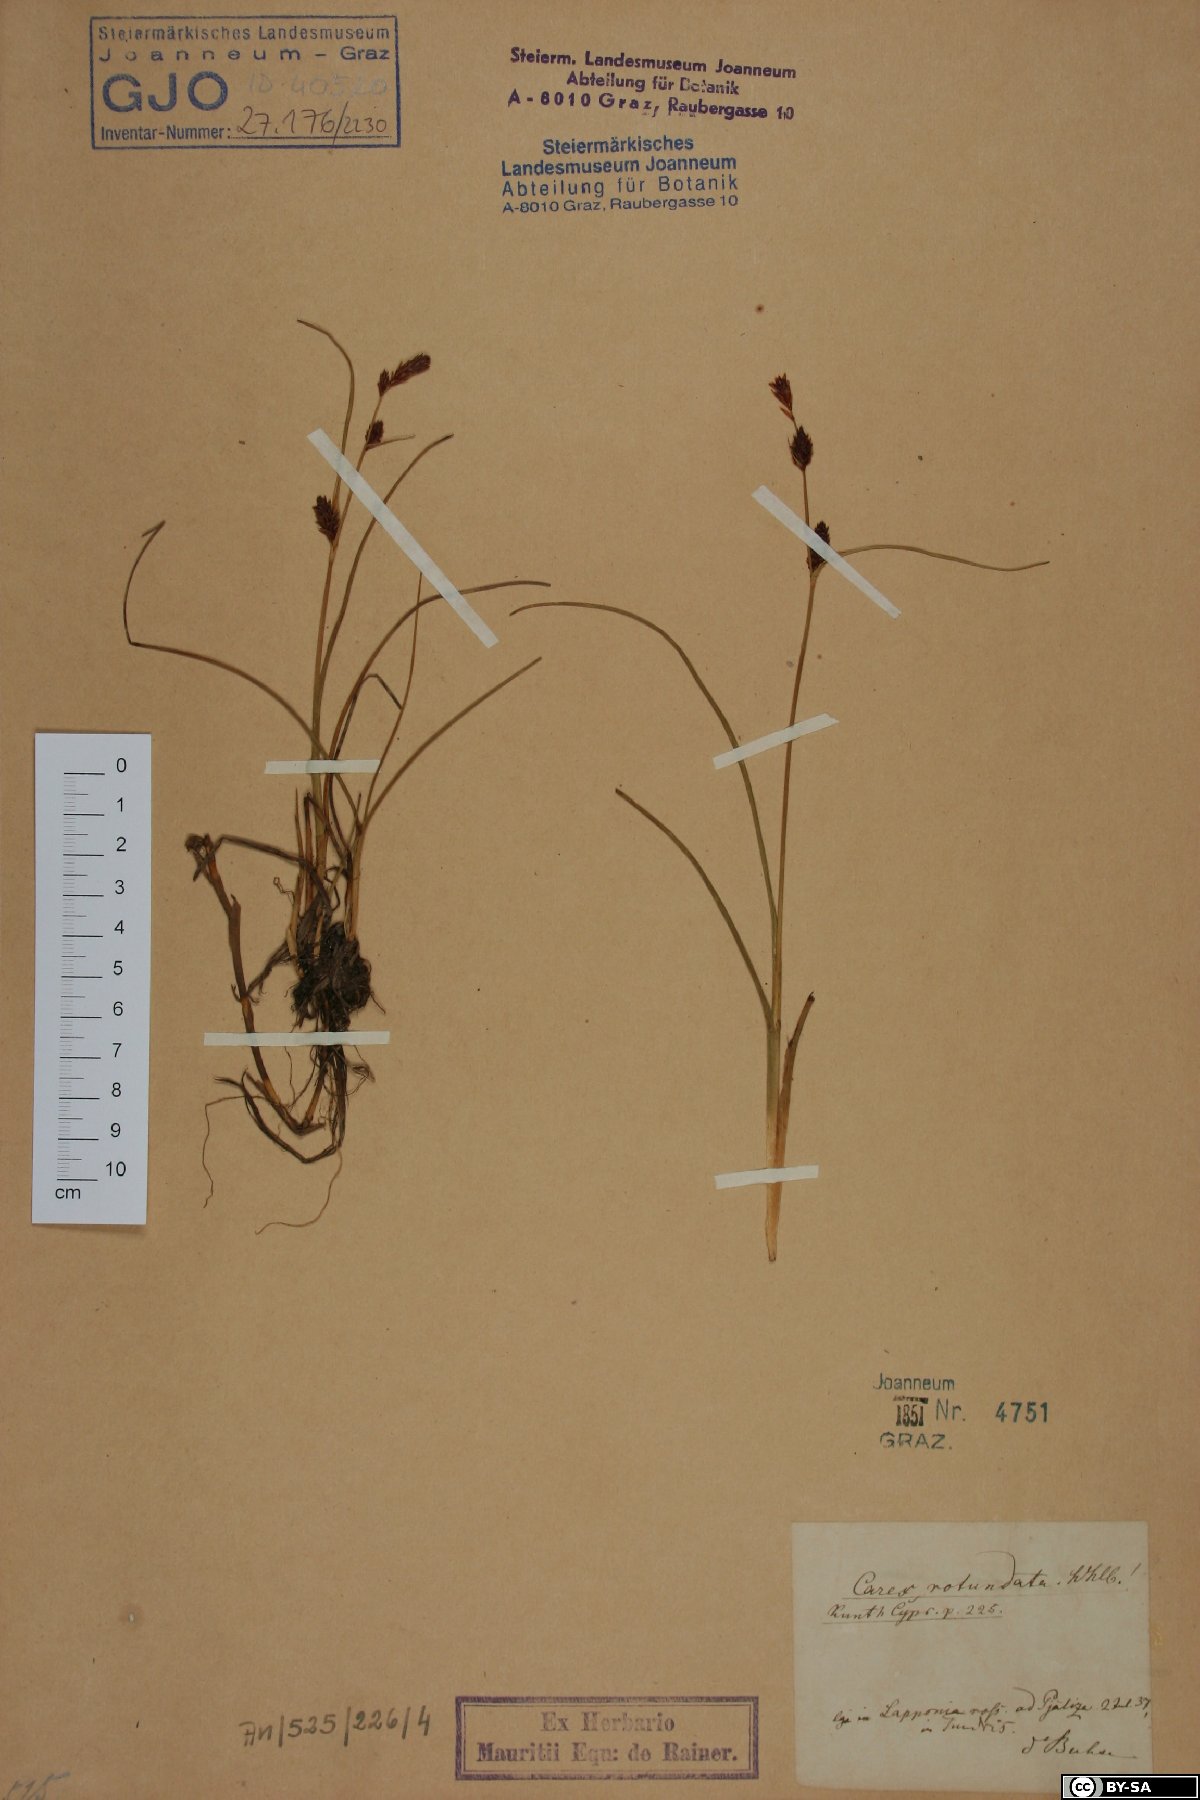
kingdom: Plantae
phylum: Tracheophyta
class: Liliopsida
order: Poales
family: Cyperaceae
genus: Carex
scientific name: Carex rotundata
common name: Round-fruited sedge
